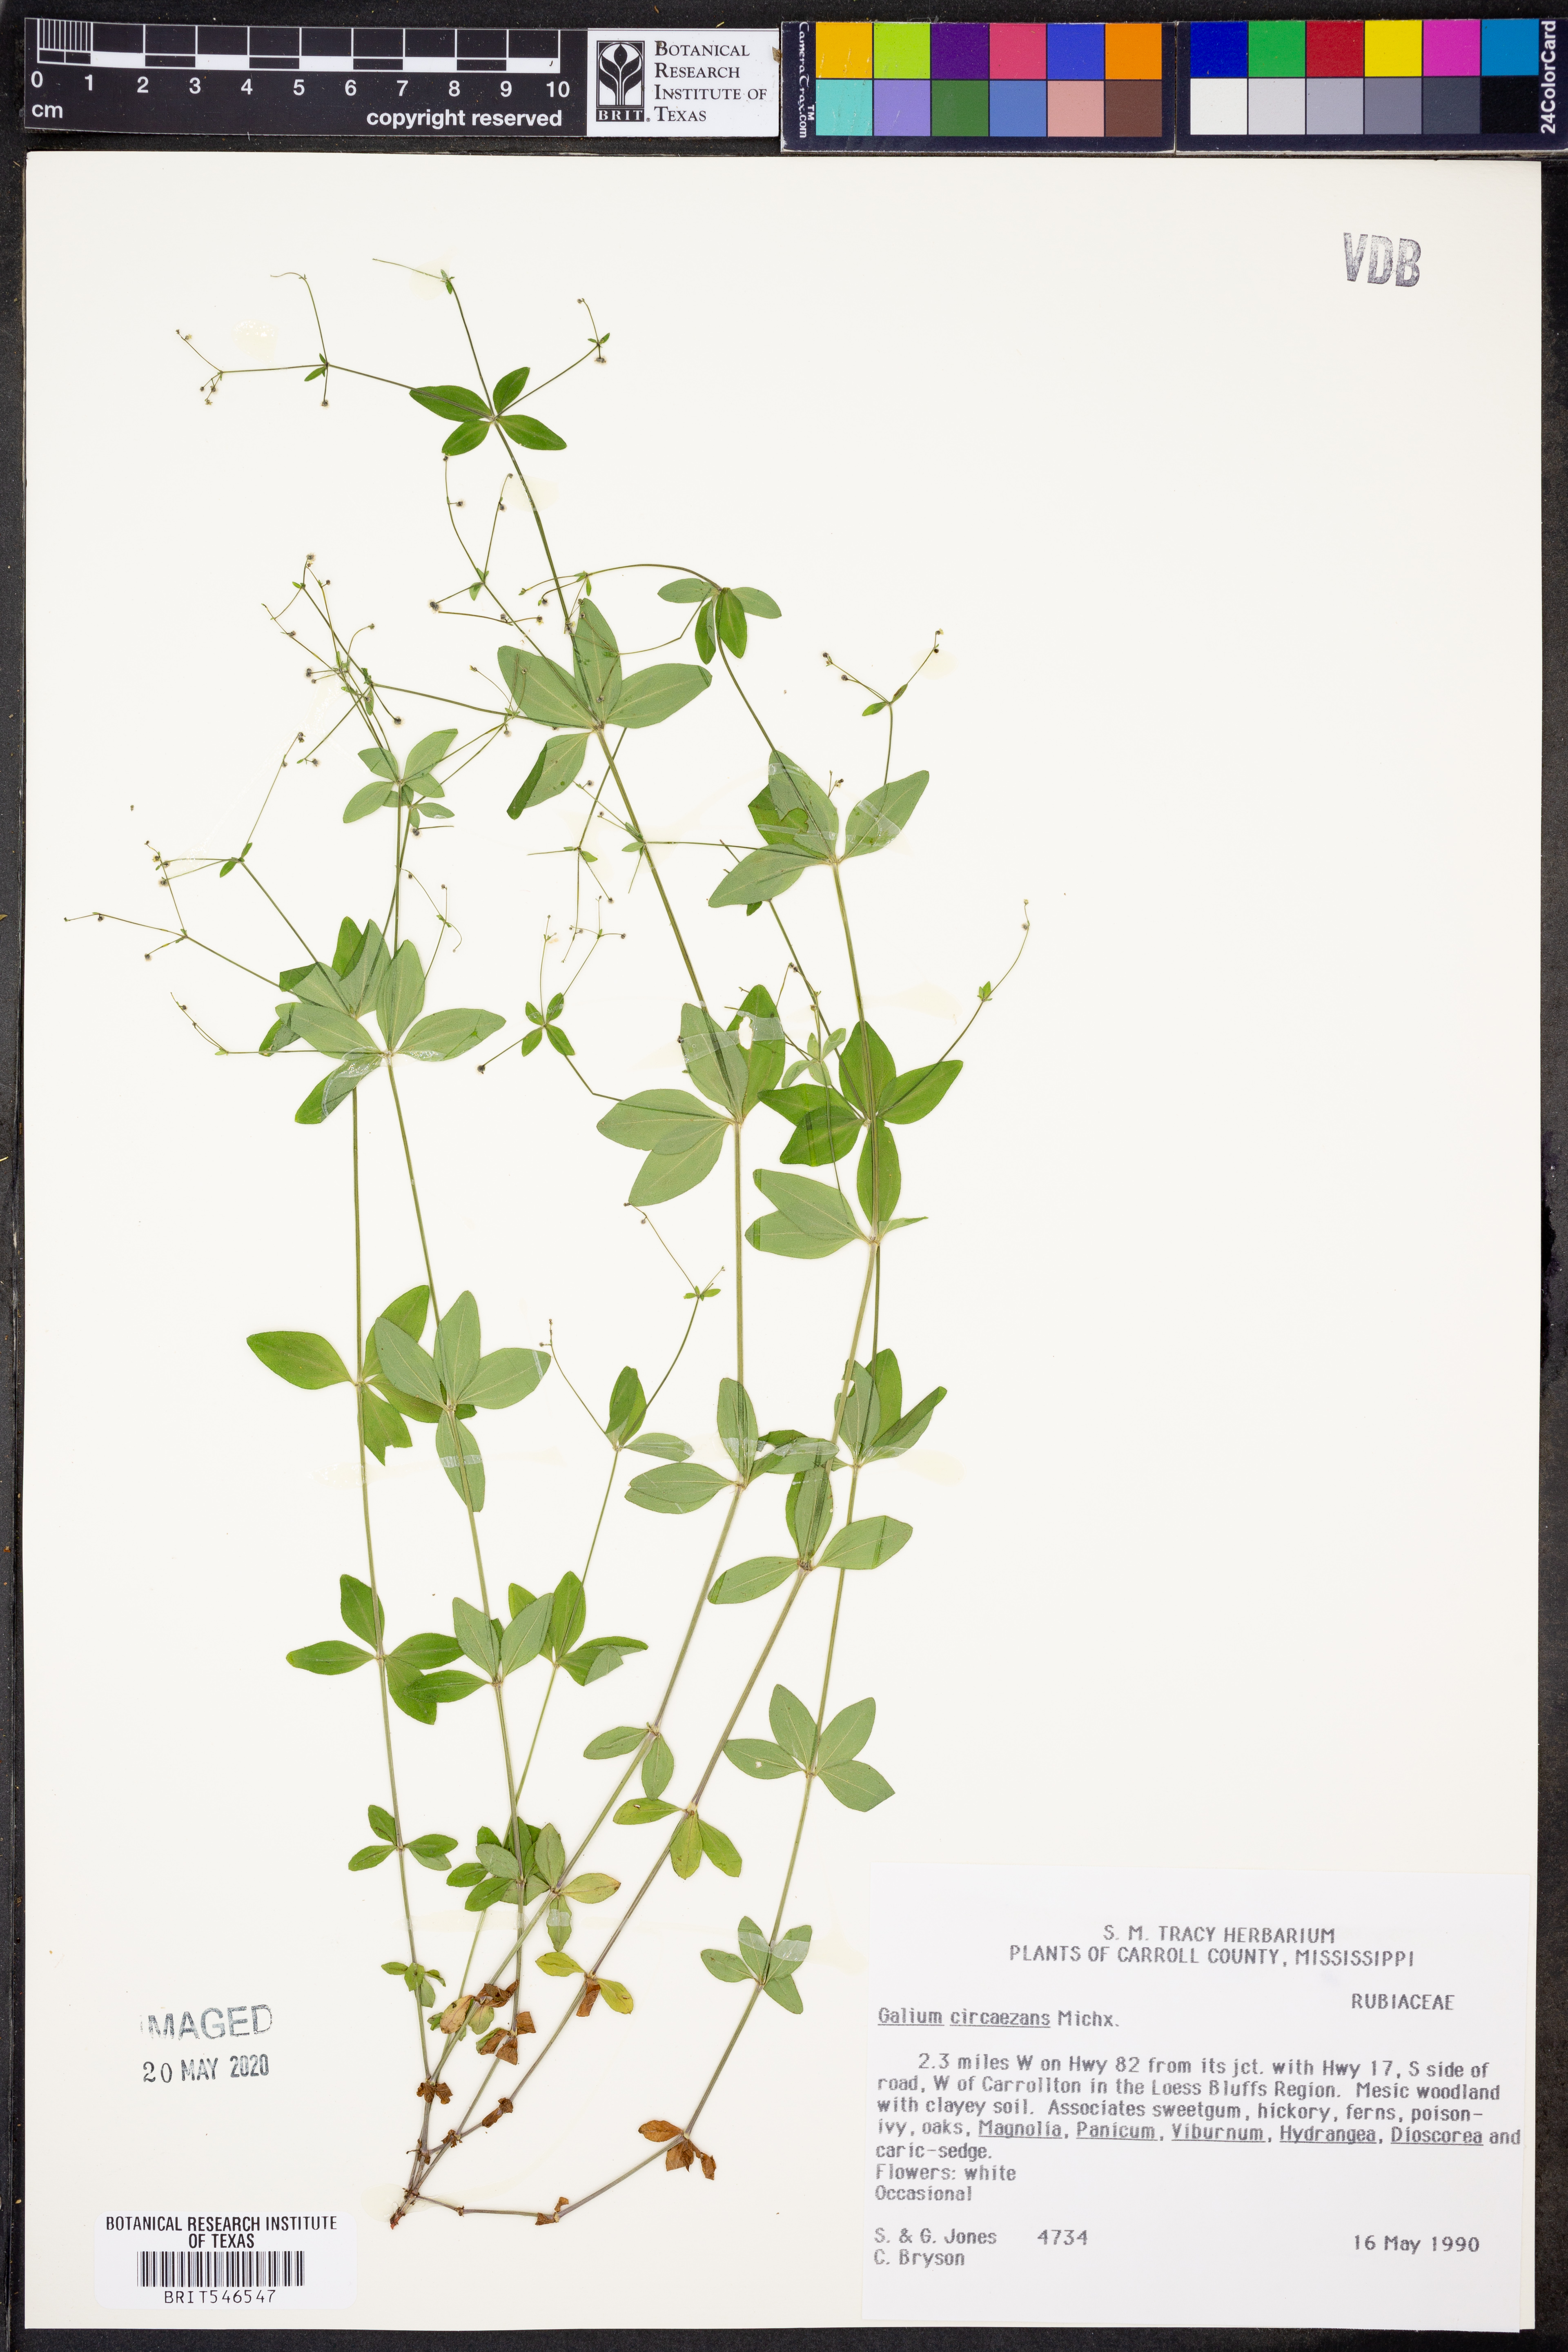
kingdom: Plantae
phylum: Tracheophyta
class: Magnoliopsida
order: Gentianales
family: Rubiaceae
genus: Galium
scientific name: Galium circaezans
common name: Forest bedstraw
